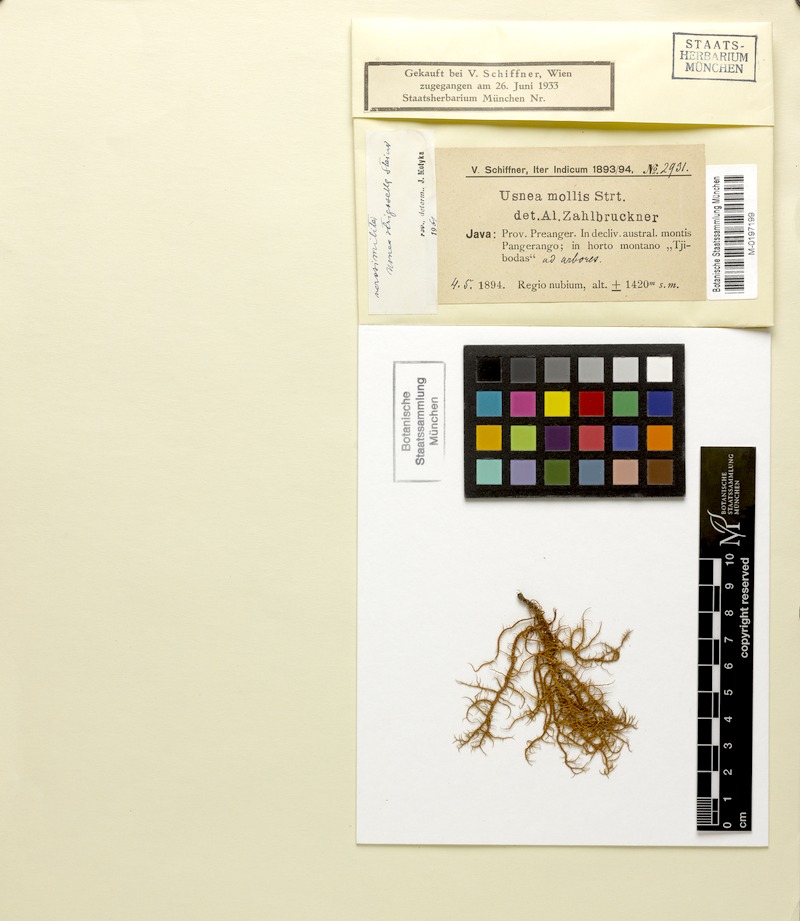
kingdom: Fungi
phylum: Ascomycota
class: Lecanoromycetes
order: Lecanorales
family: Parmeliaceae
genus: Usnea
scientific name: Usnea strigosella
